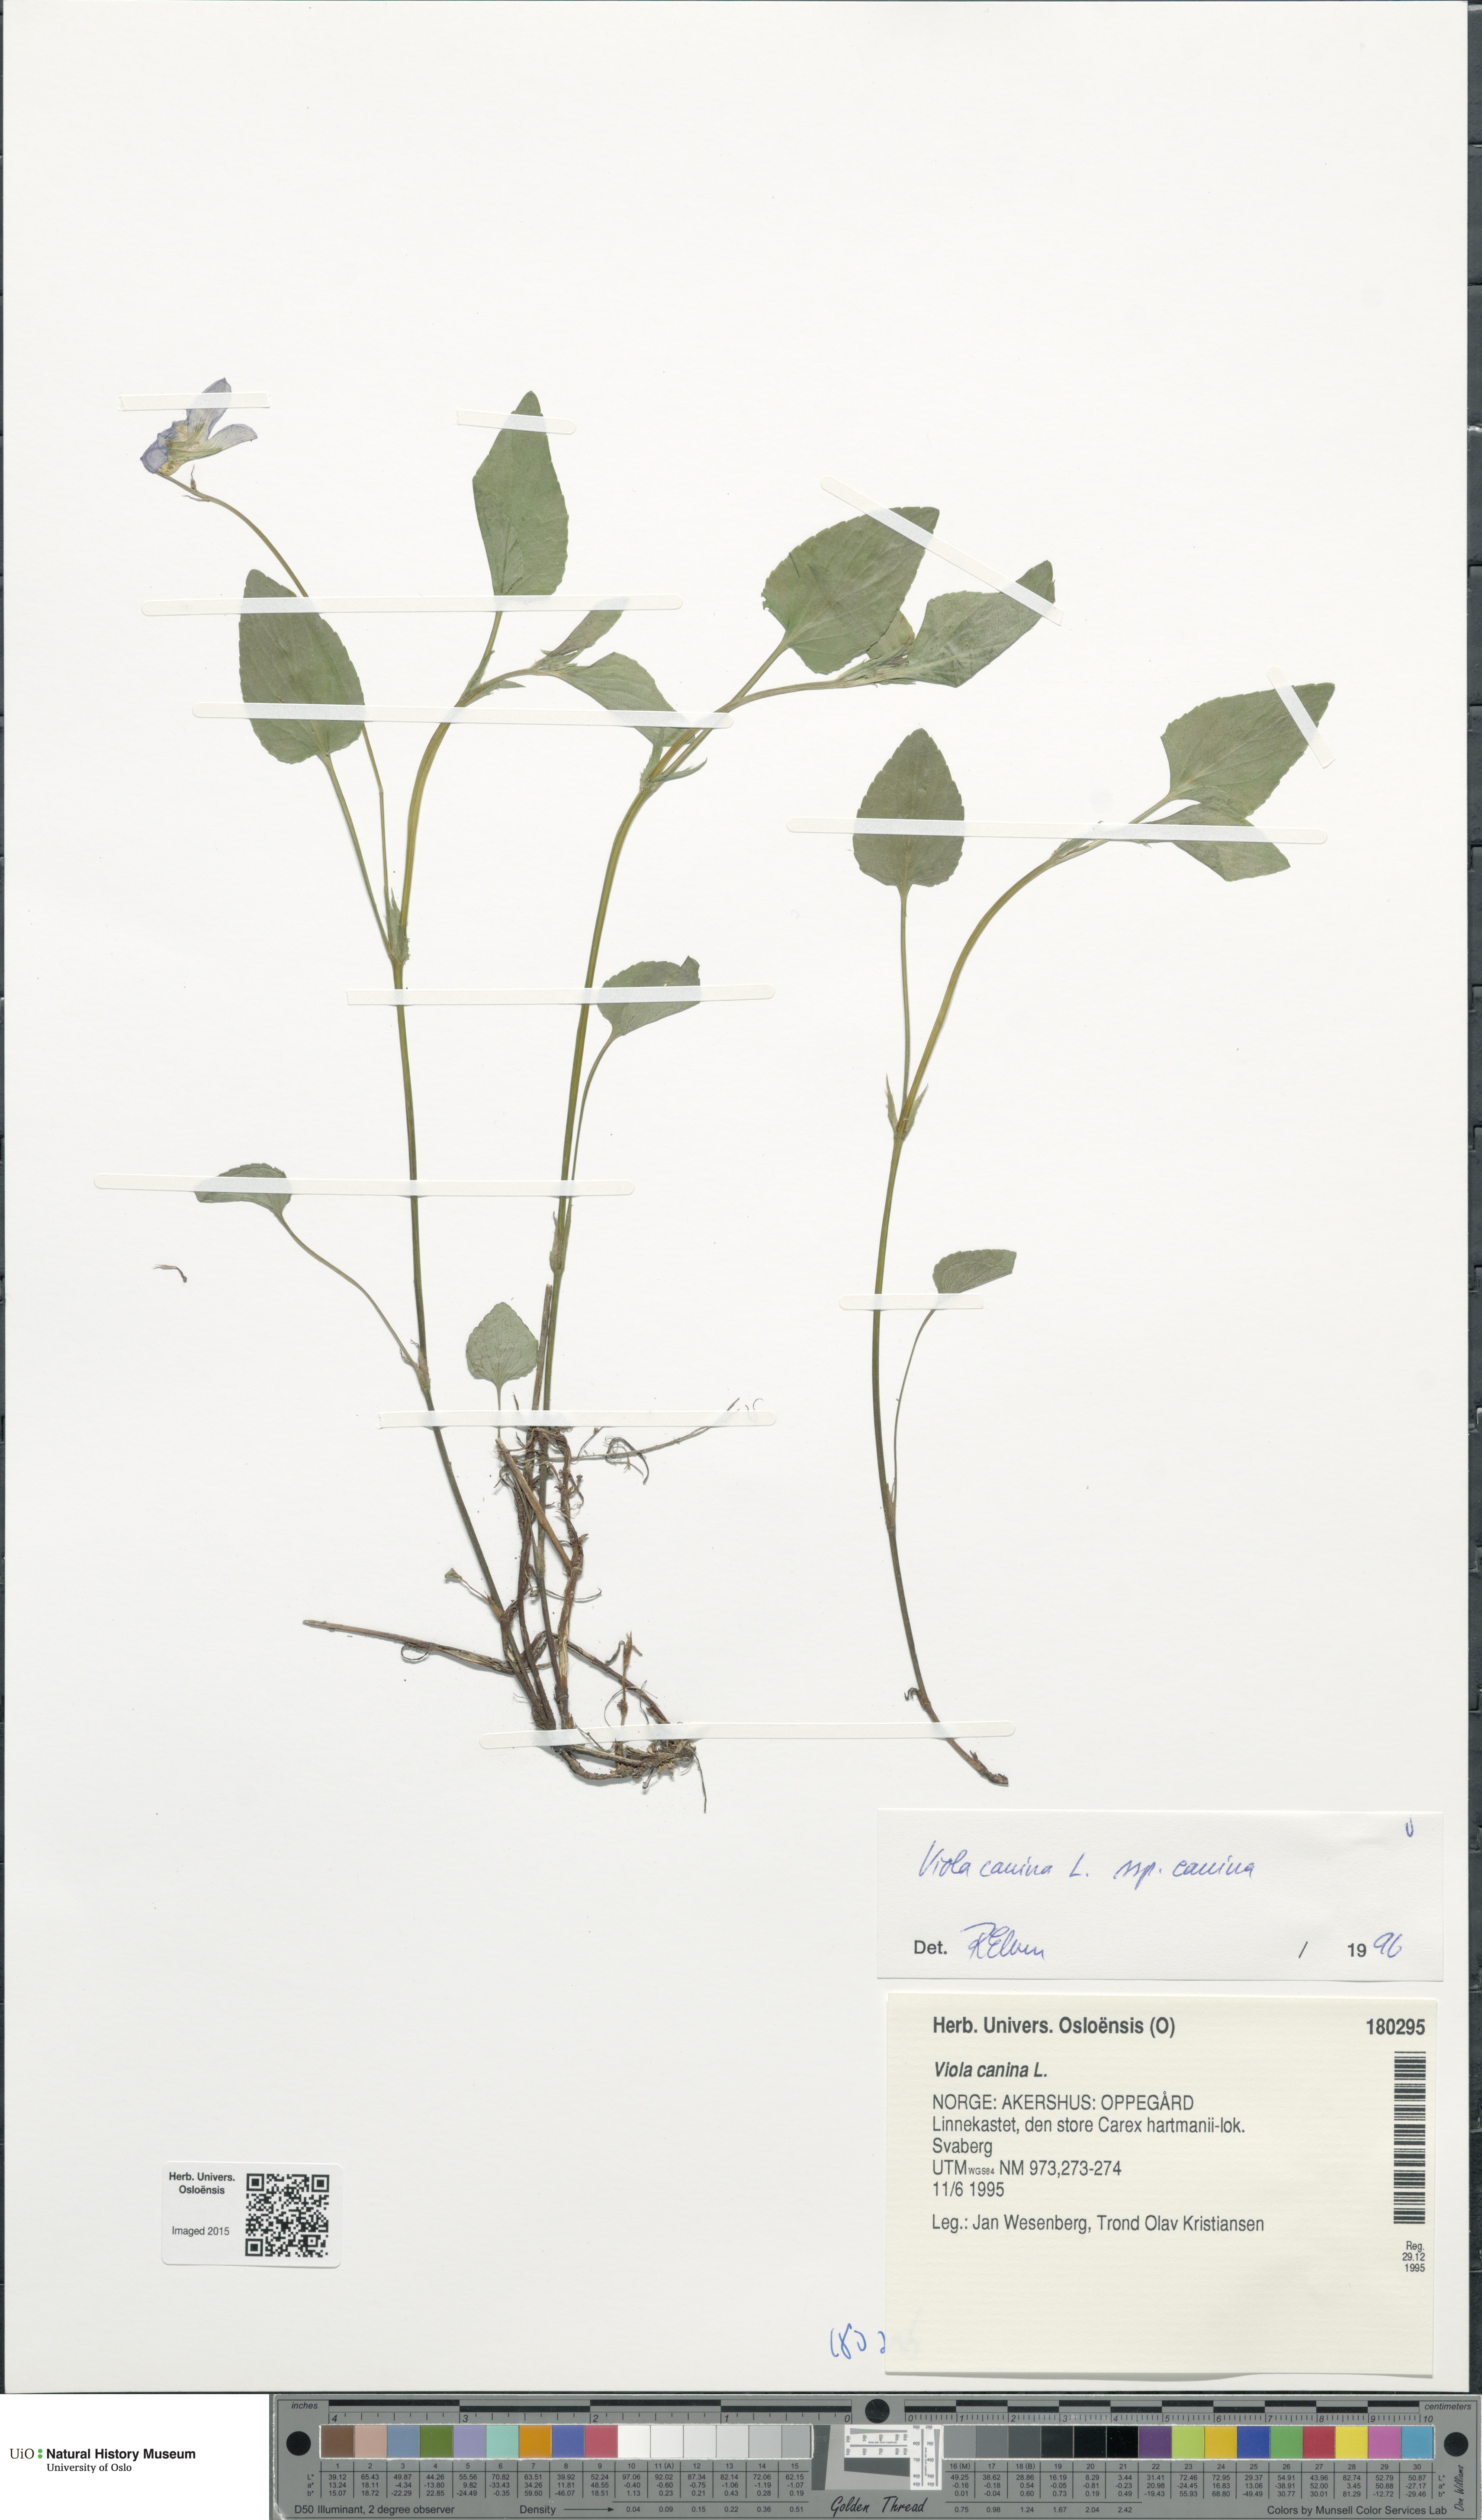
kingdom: Plantae
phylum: Tracheophyta
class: Magnoliopsida
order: Malpighiales
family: Violaceae
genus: Viola
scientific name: Viola canina
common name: Heath dog-violet
